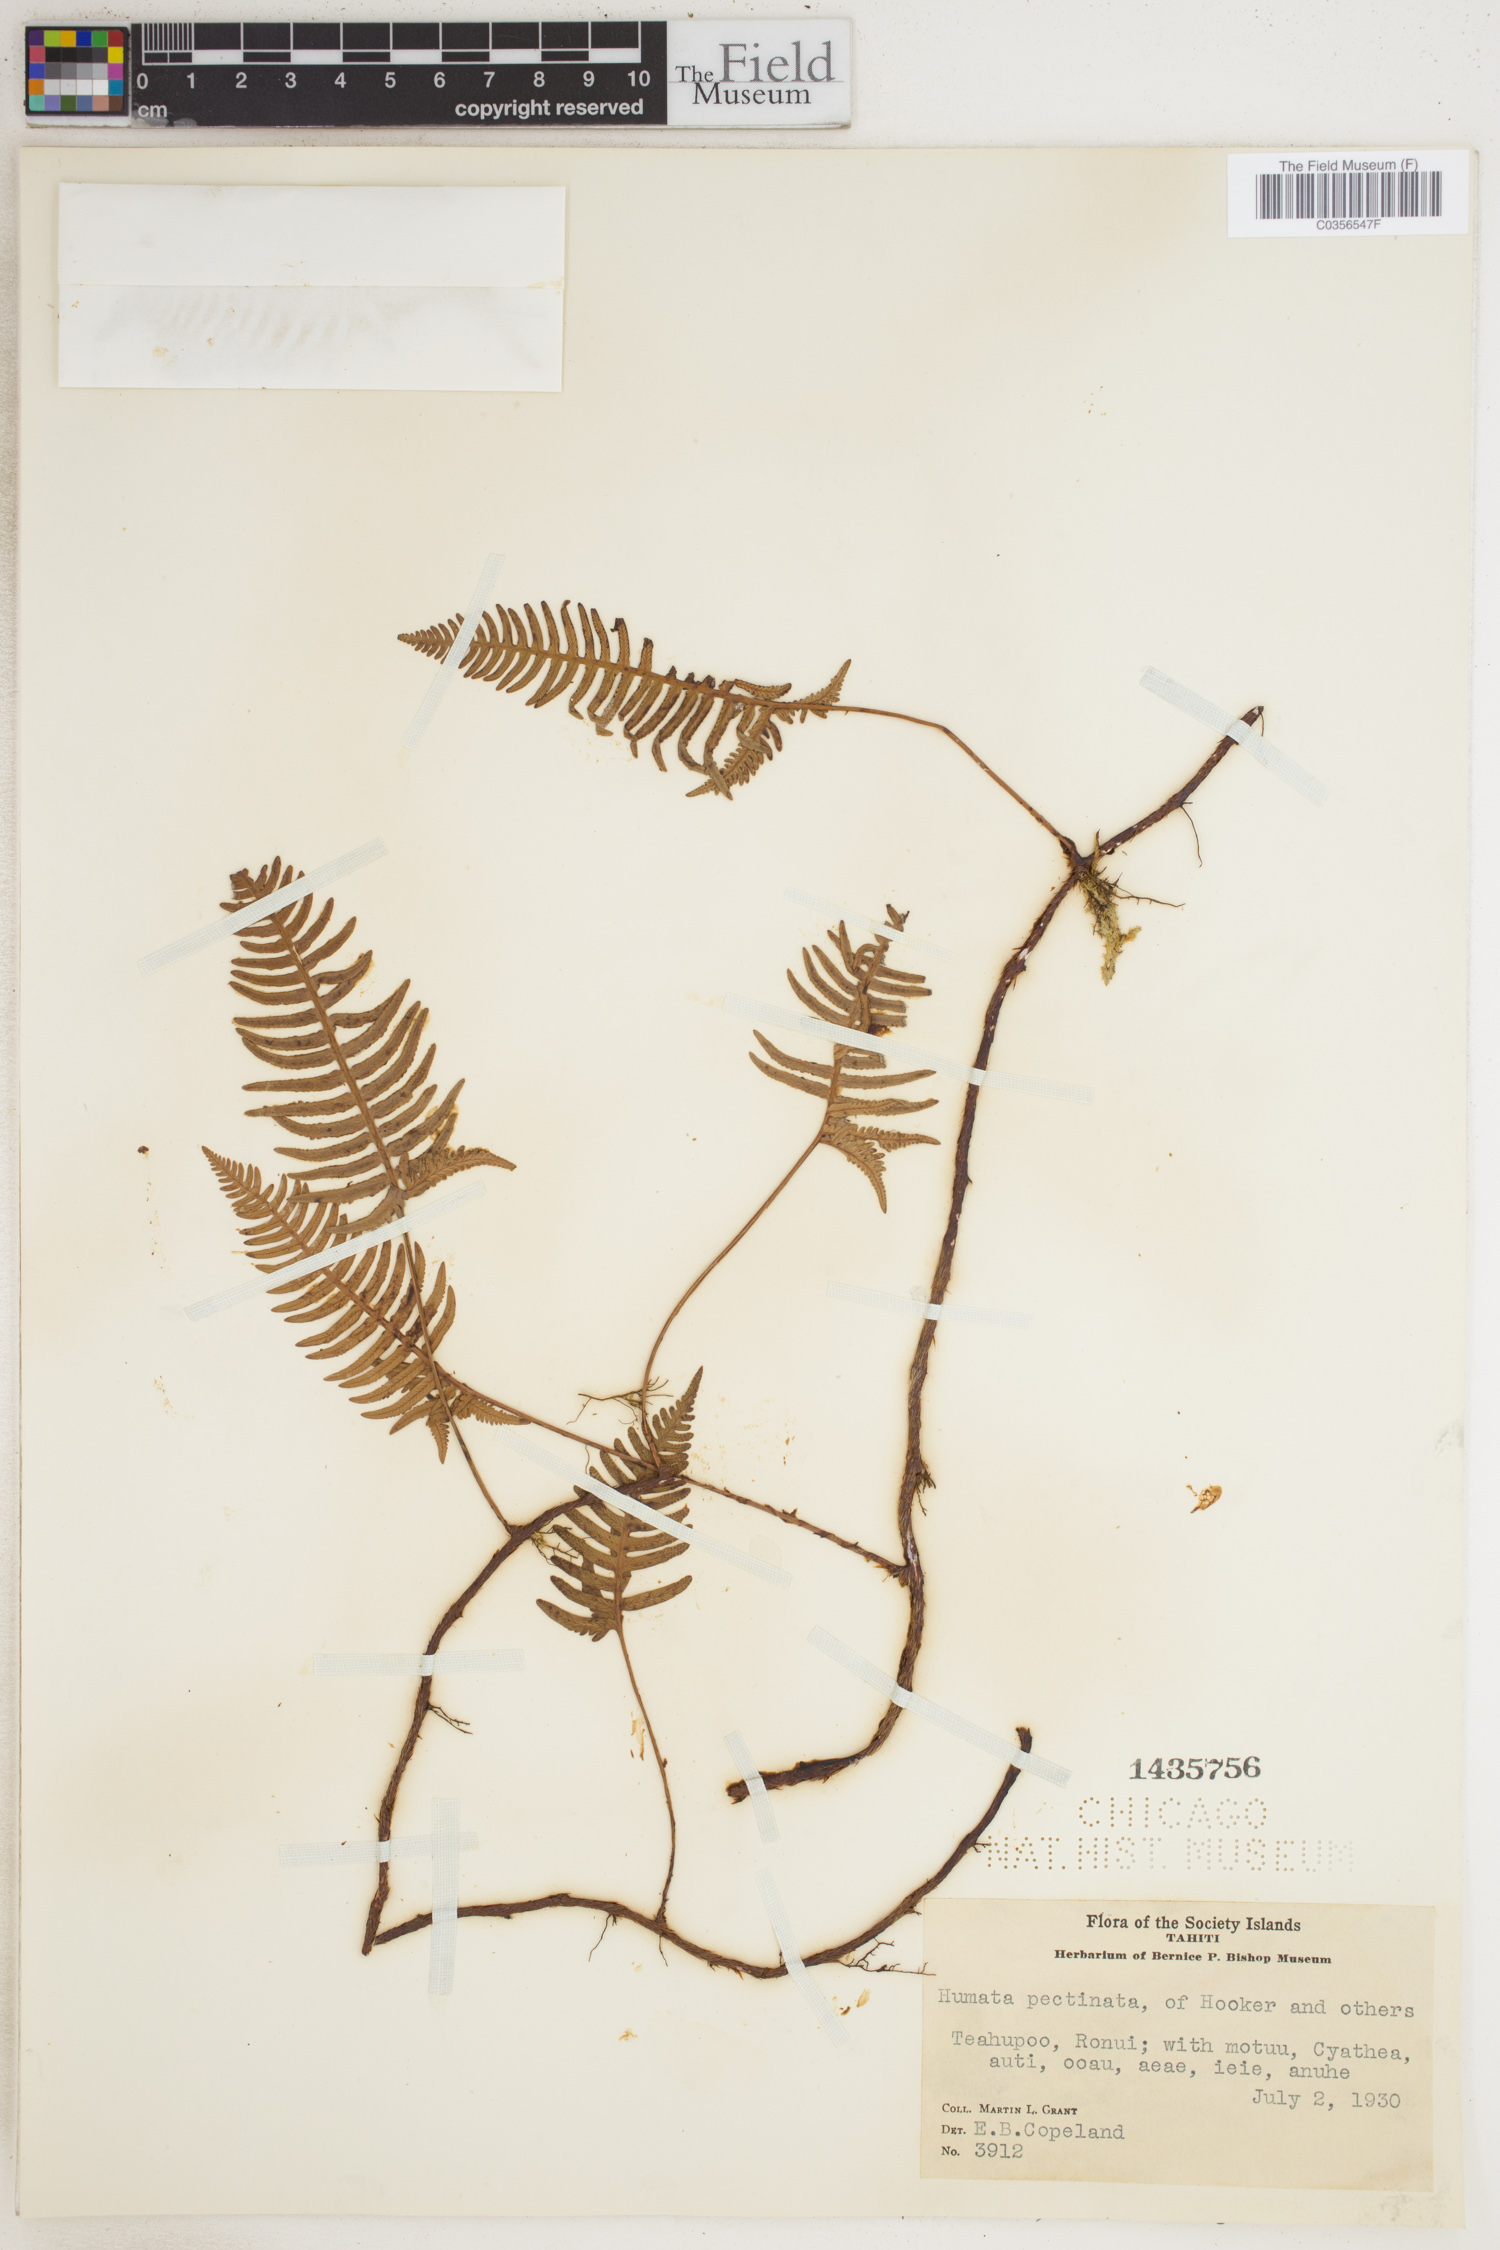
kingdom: Plantae
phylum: Tracheophyta
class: Polypodiopsida
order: Polypodiales
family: Davalliaceae
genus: Davallia
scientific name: Davallia pectinata
